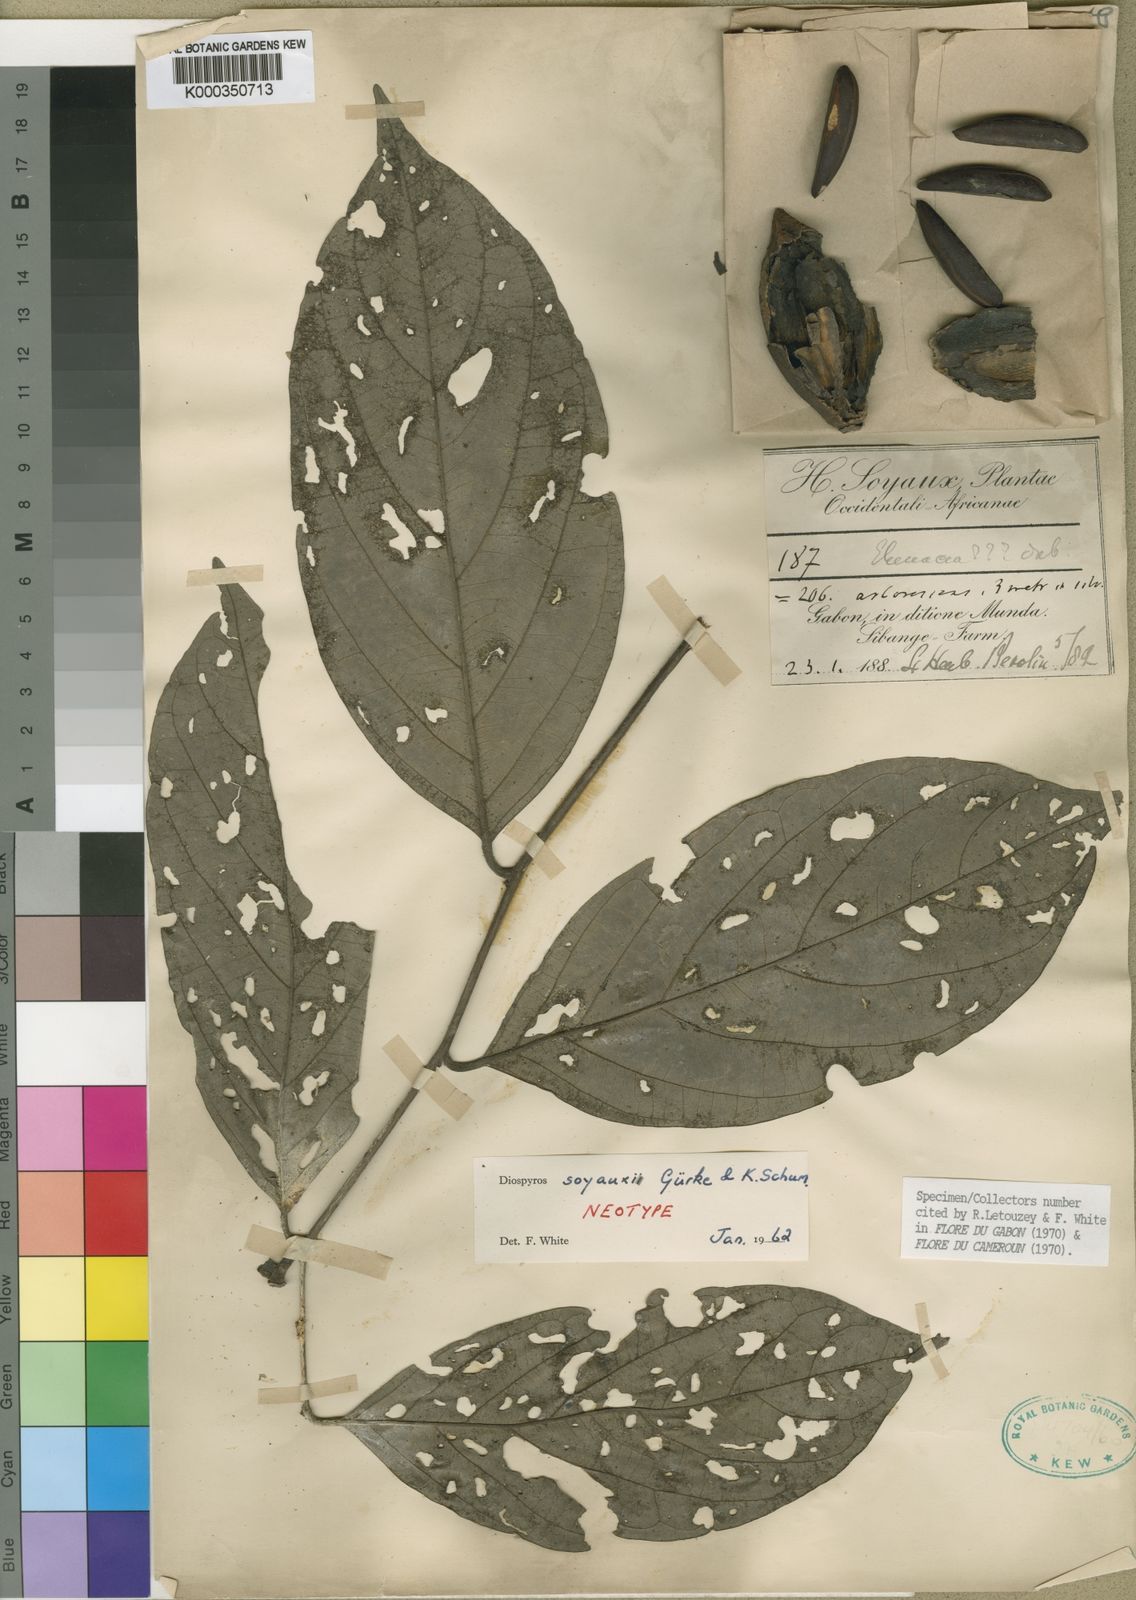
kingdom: Plantae
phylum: Tracheophyta
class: Magnoliopsida
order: Ericales
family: Ebenaceae
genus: Diospyros
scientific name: Diospyros
